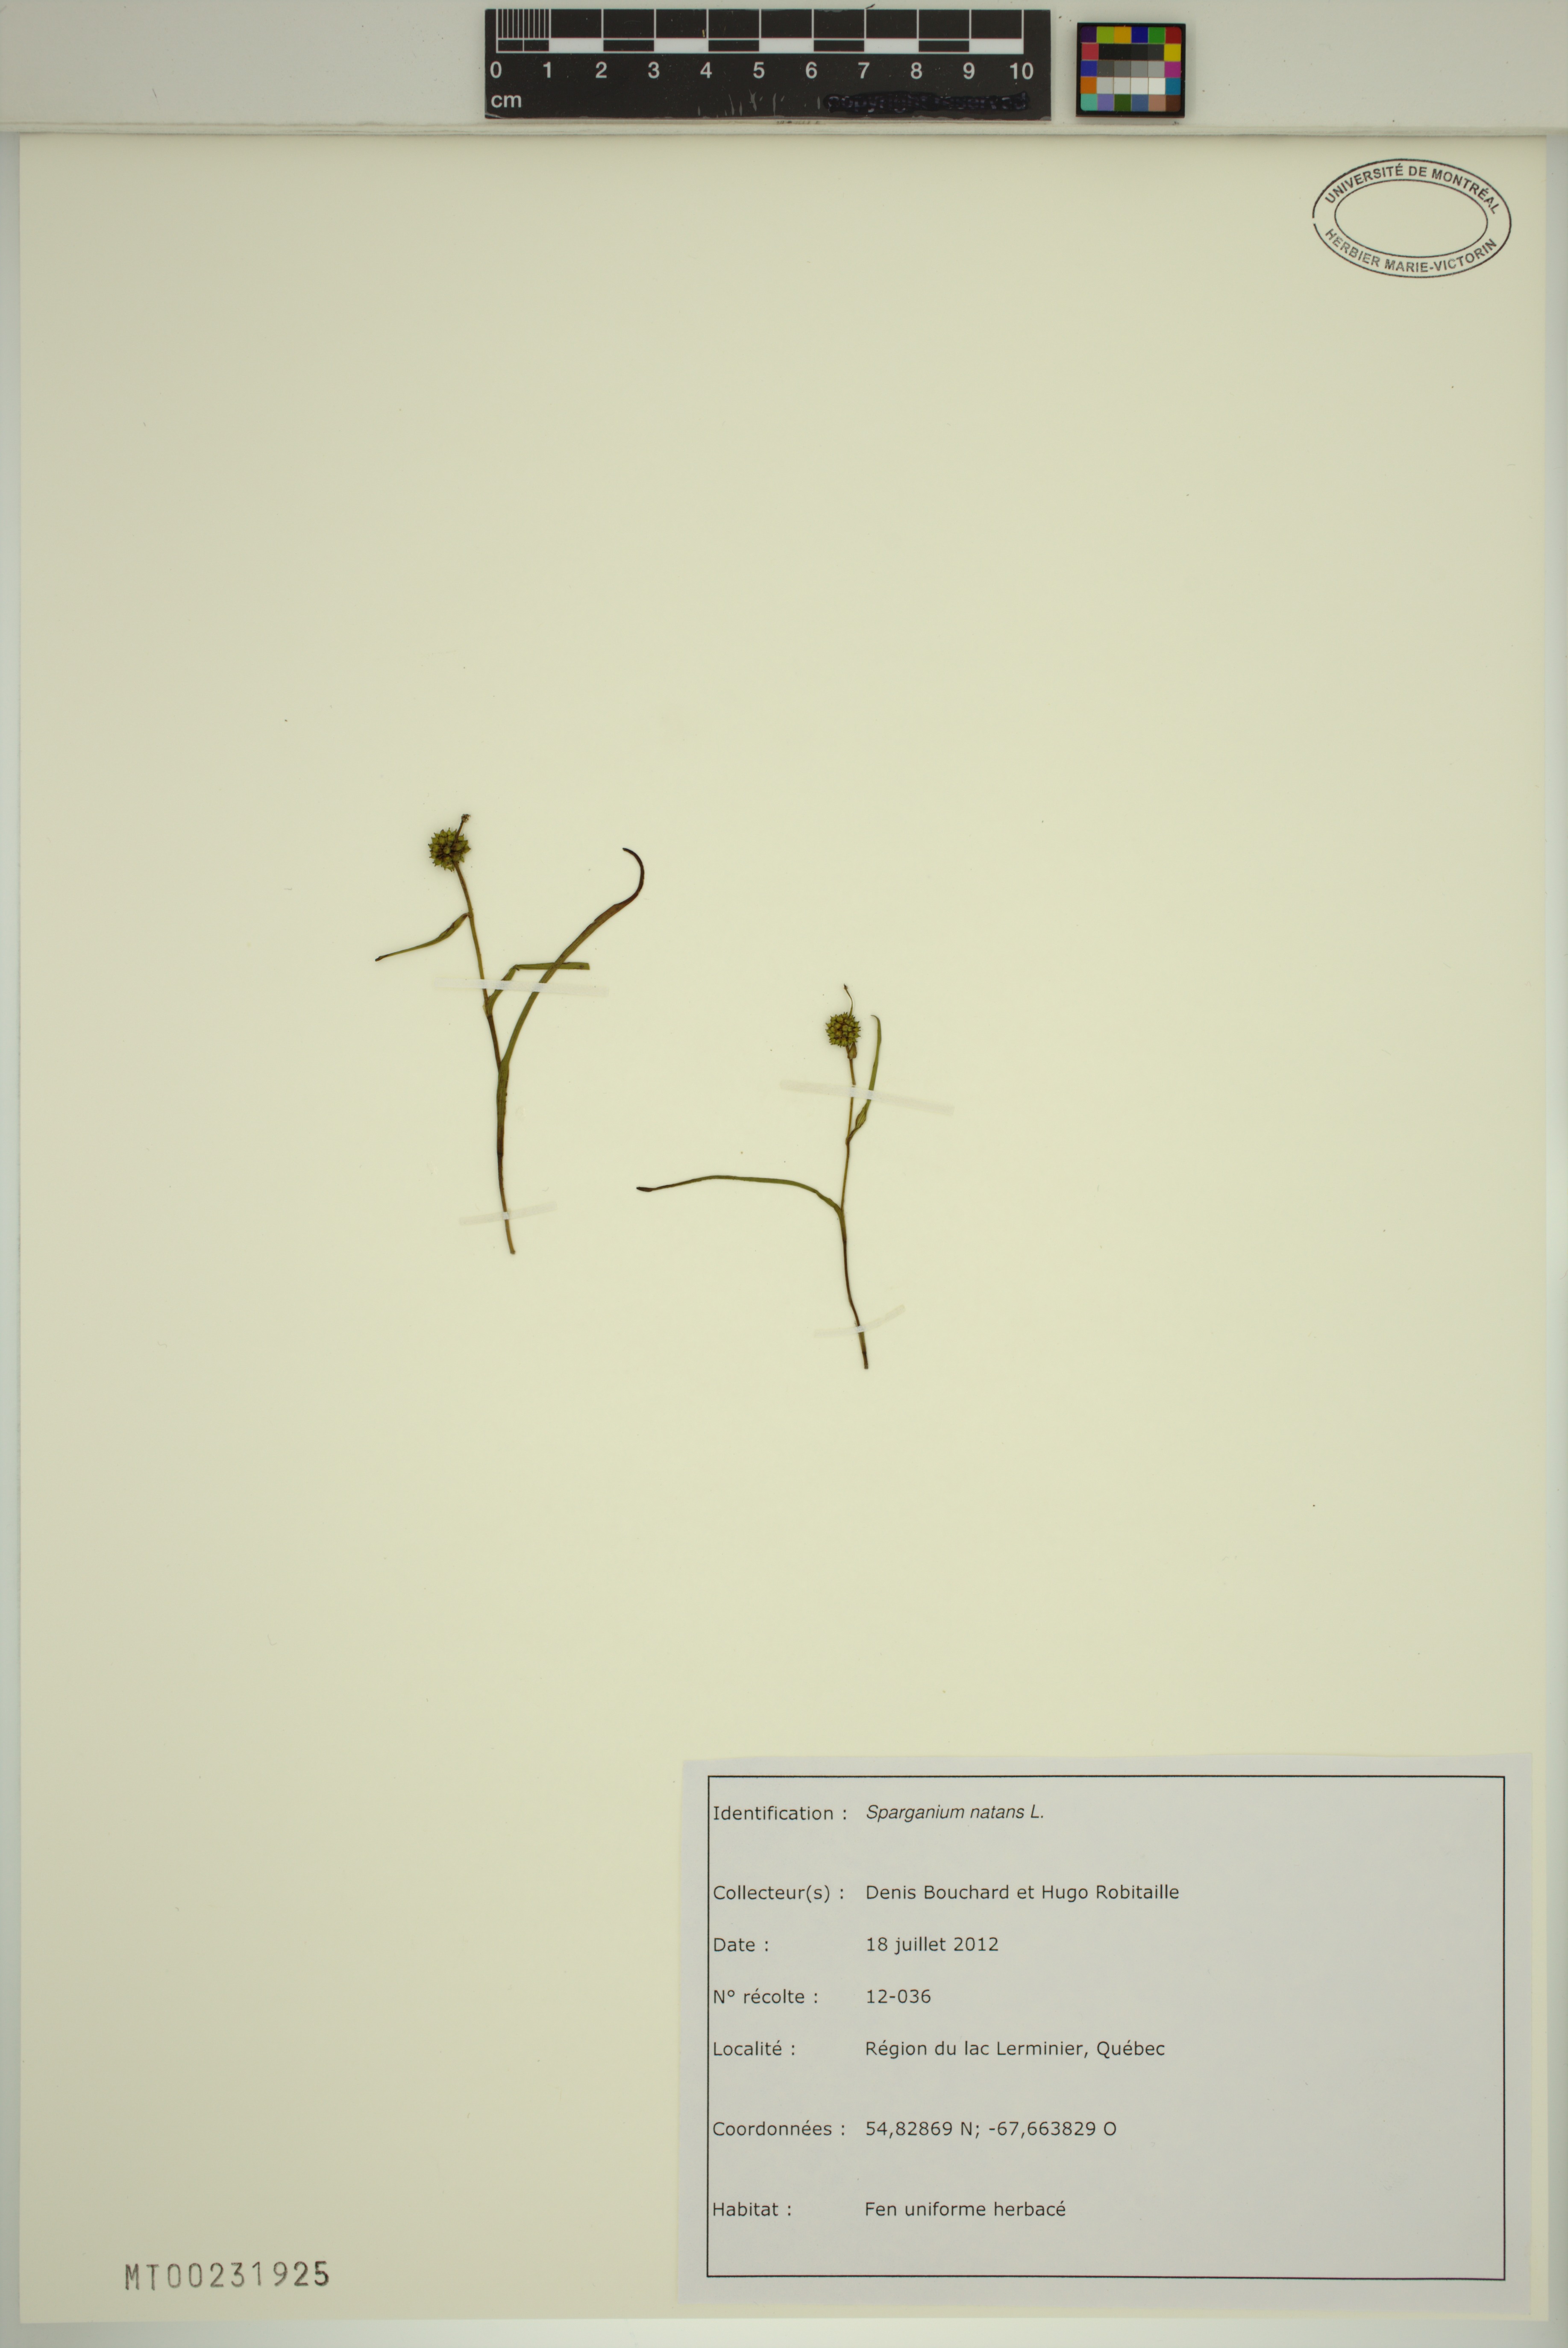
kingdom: Plantae
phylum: Tracheophyta
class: Liliopsida
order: Poales
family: Typhaceae
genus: Sparganium
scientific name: Sparganium natans
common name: Least bur-reed
